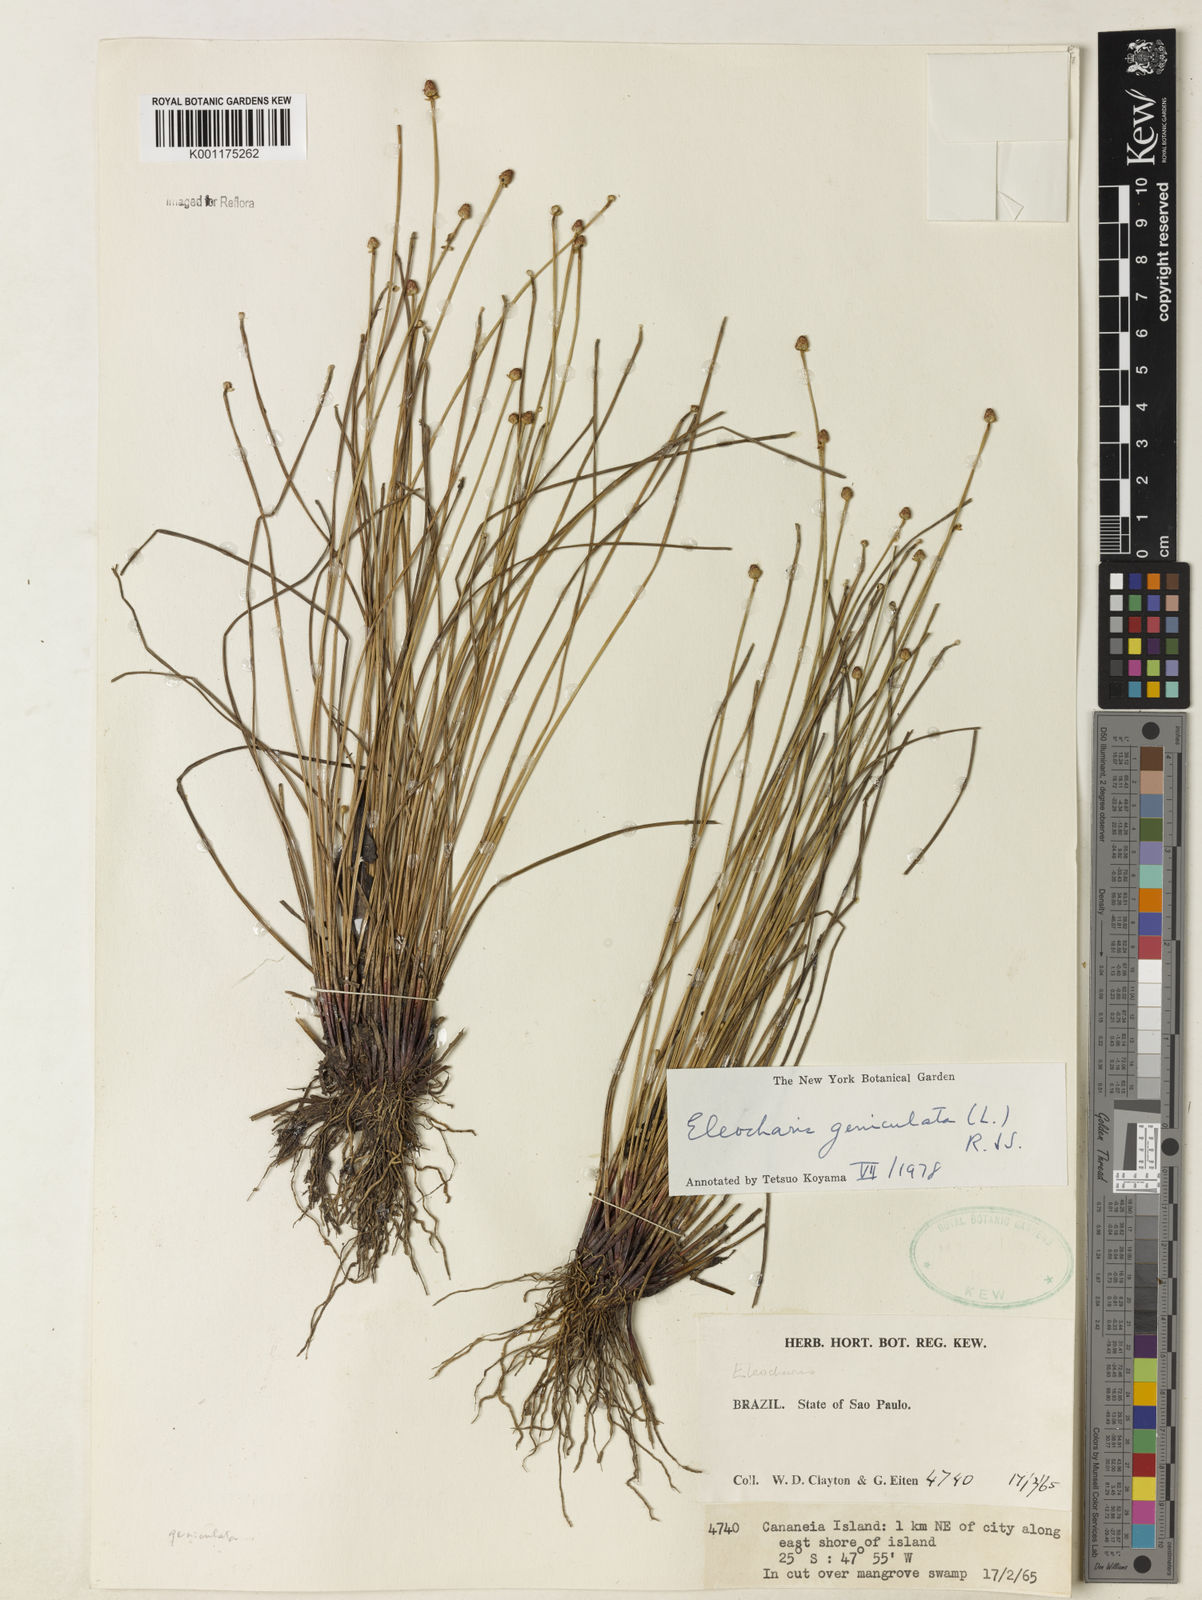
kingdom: Plantae
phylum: Tracheophyta
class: Liliopsida
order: Poales
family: Cyperaceae
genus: Eleocharis
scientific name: Eleocharis geniculata
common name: Canada spikesedge
